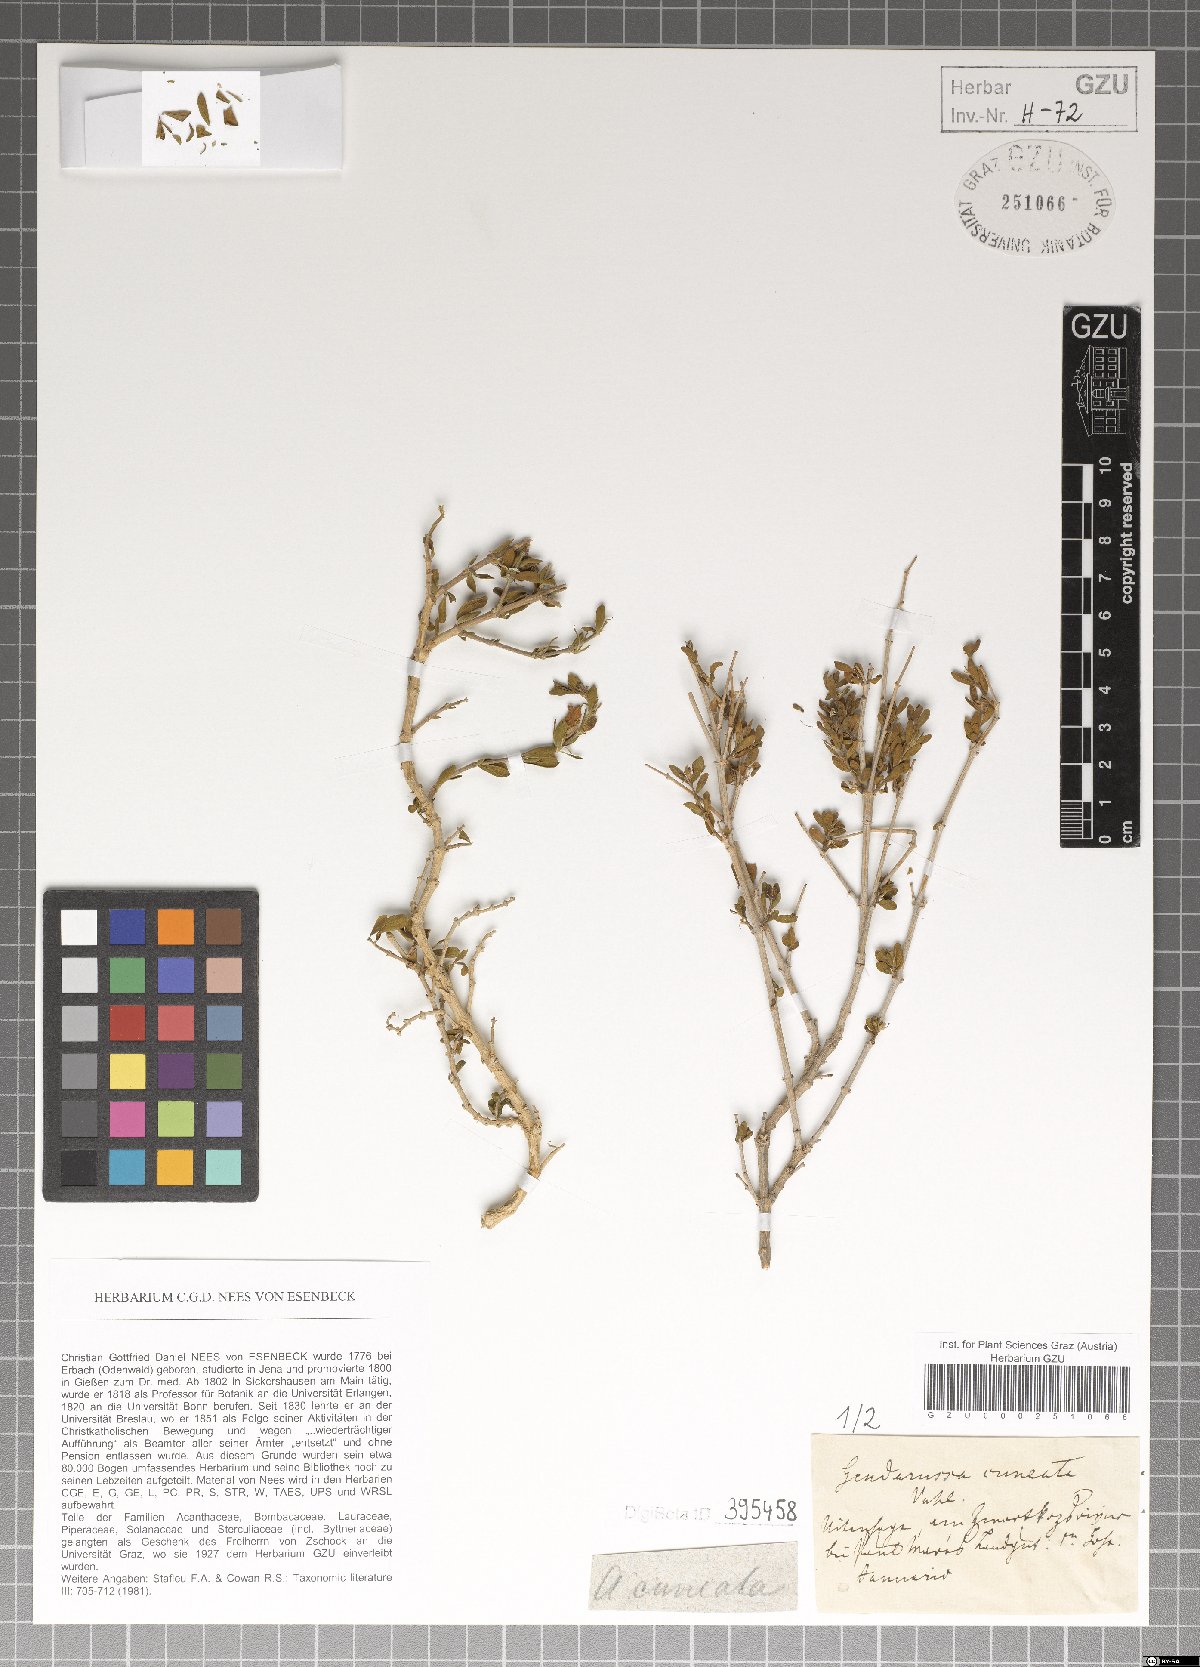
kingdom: Plantae
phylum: Tracheophyta
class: Magnoliopsida
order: Lamiales
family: Acanthaceae
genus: Justicia
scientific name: Justicia cuneata
